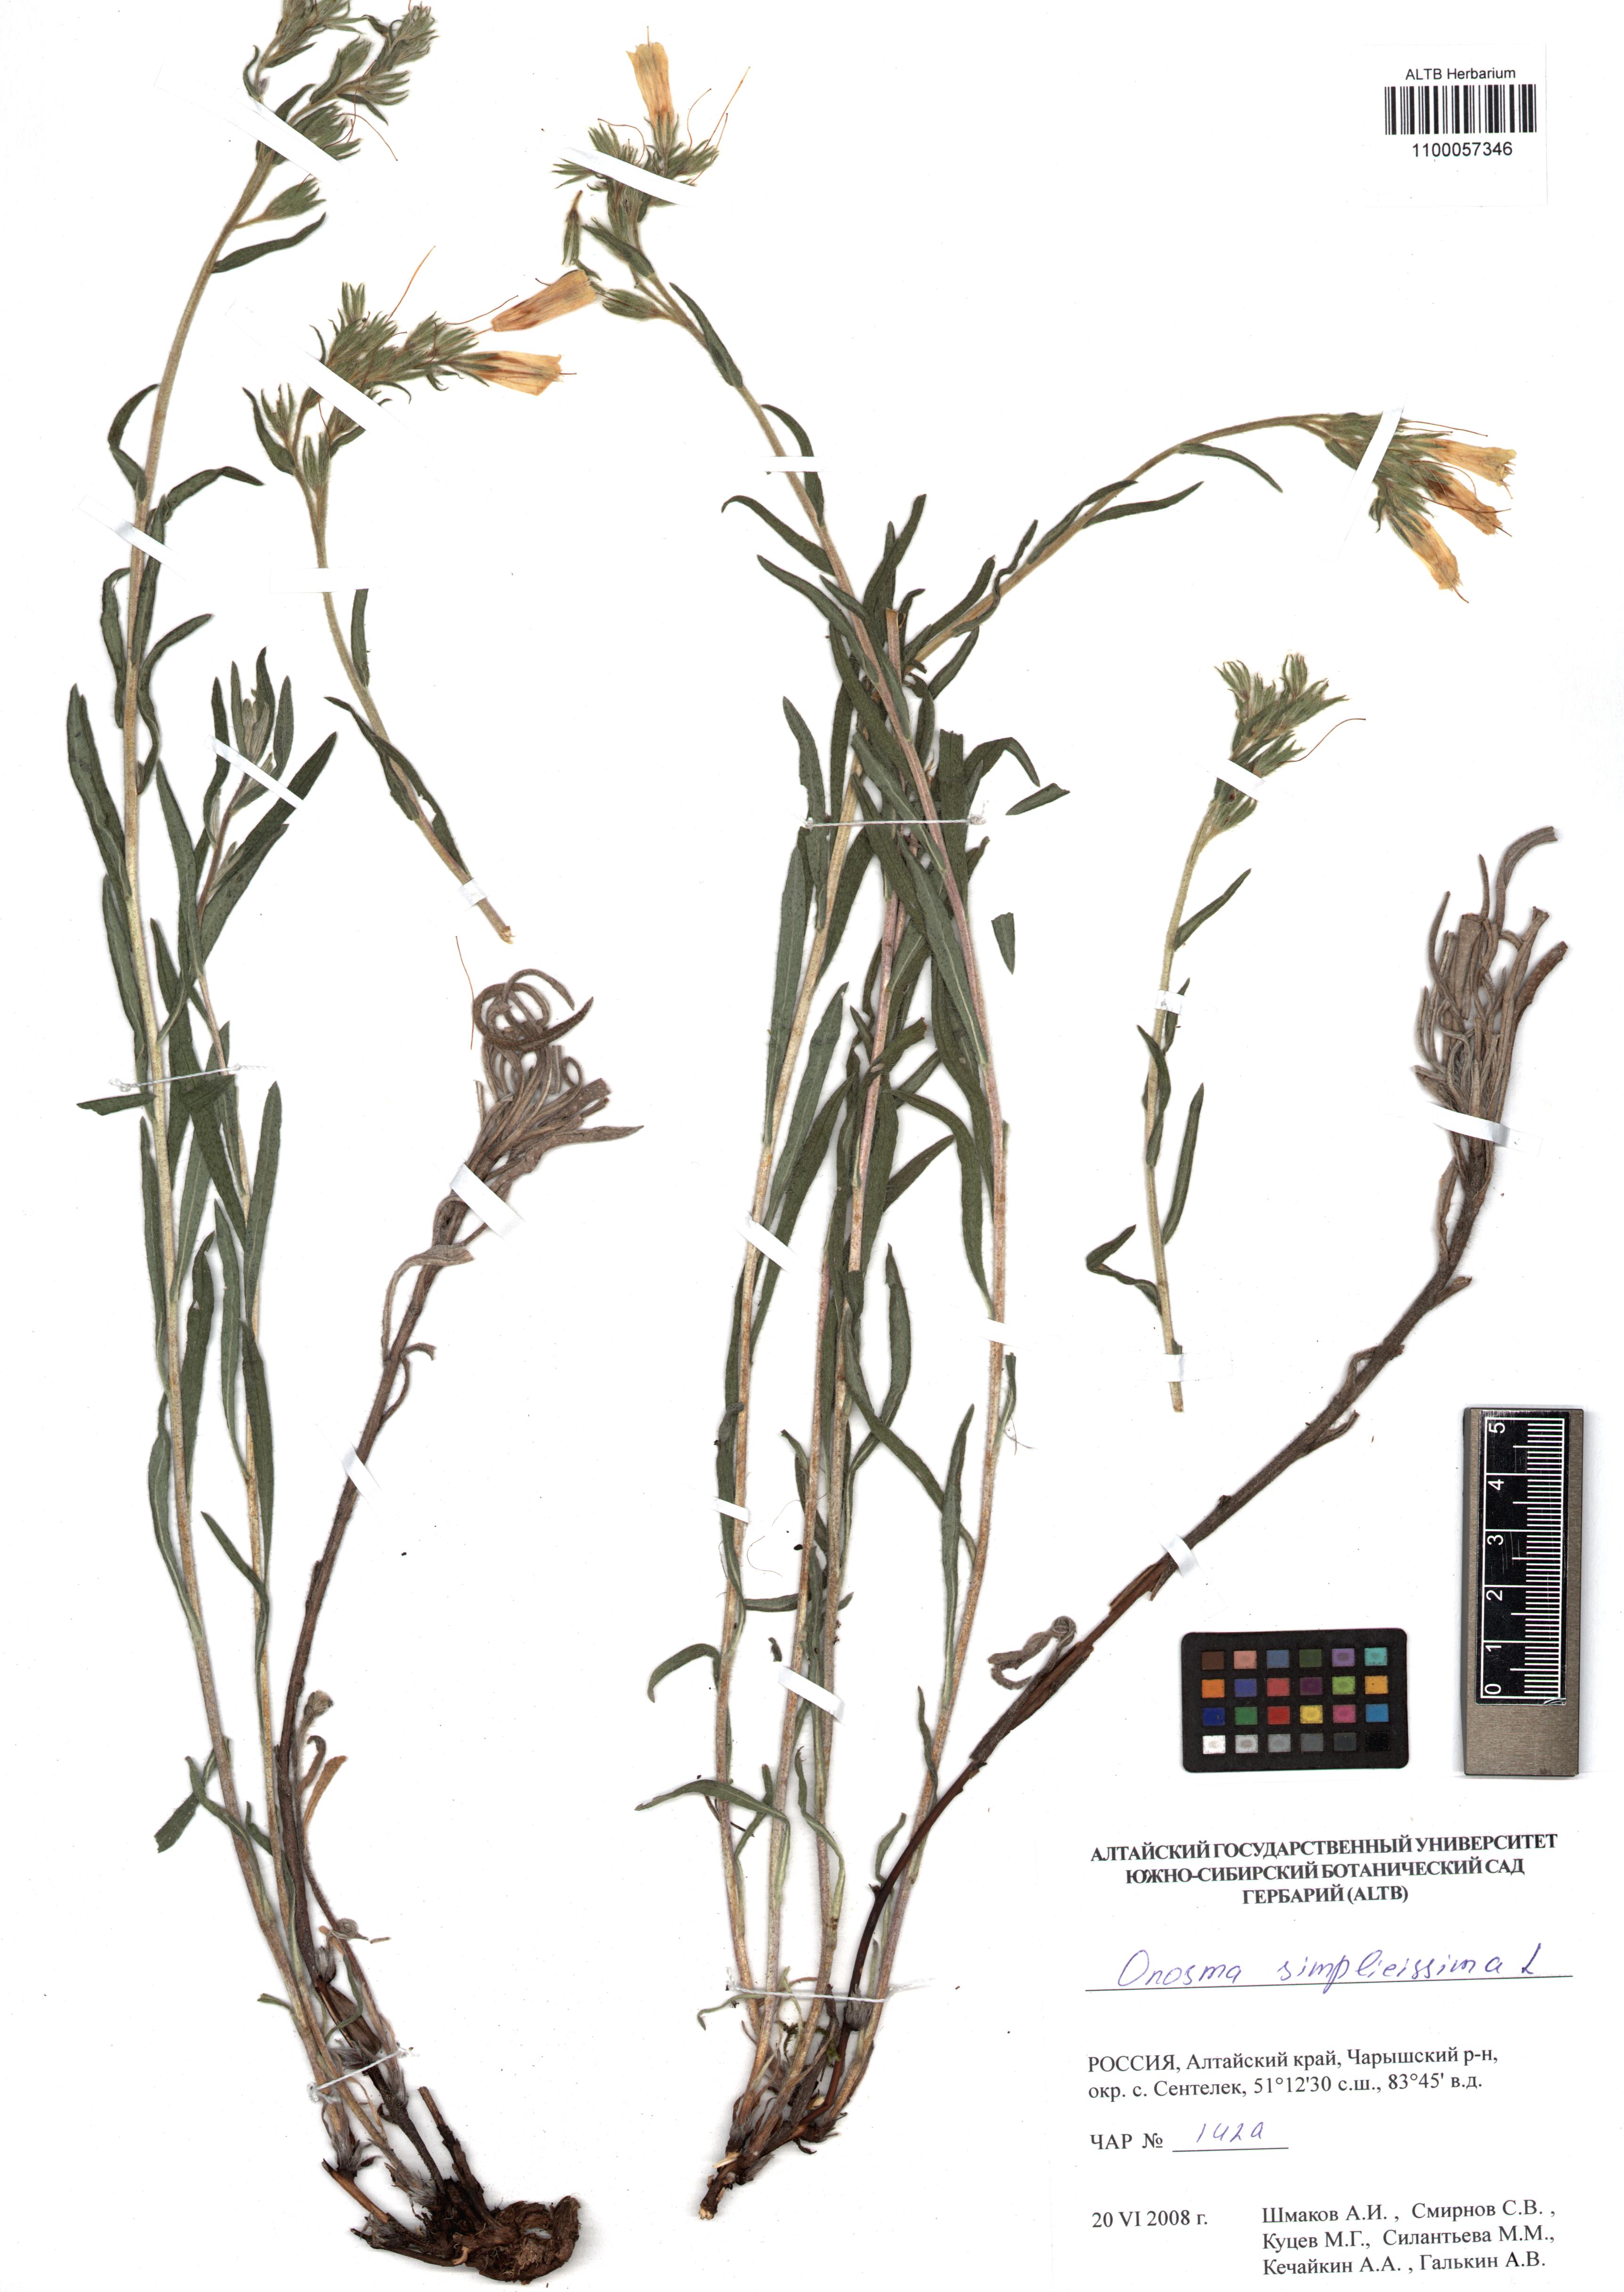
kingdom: Plantae
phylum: Tracheophyta
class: Magnoliopsida
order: Boraginales
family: Boraginaceae
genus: Onosma
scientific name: Onosma simplicissima
